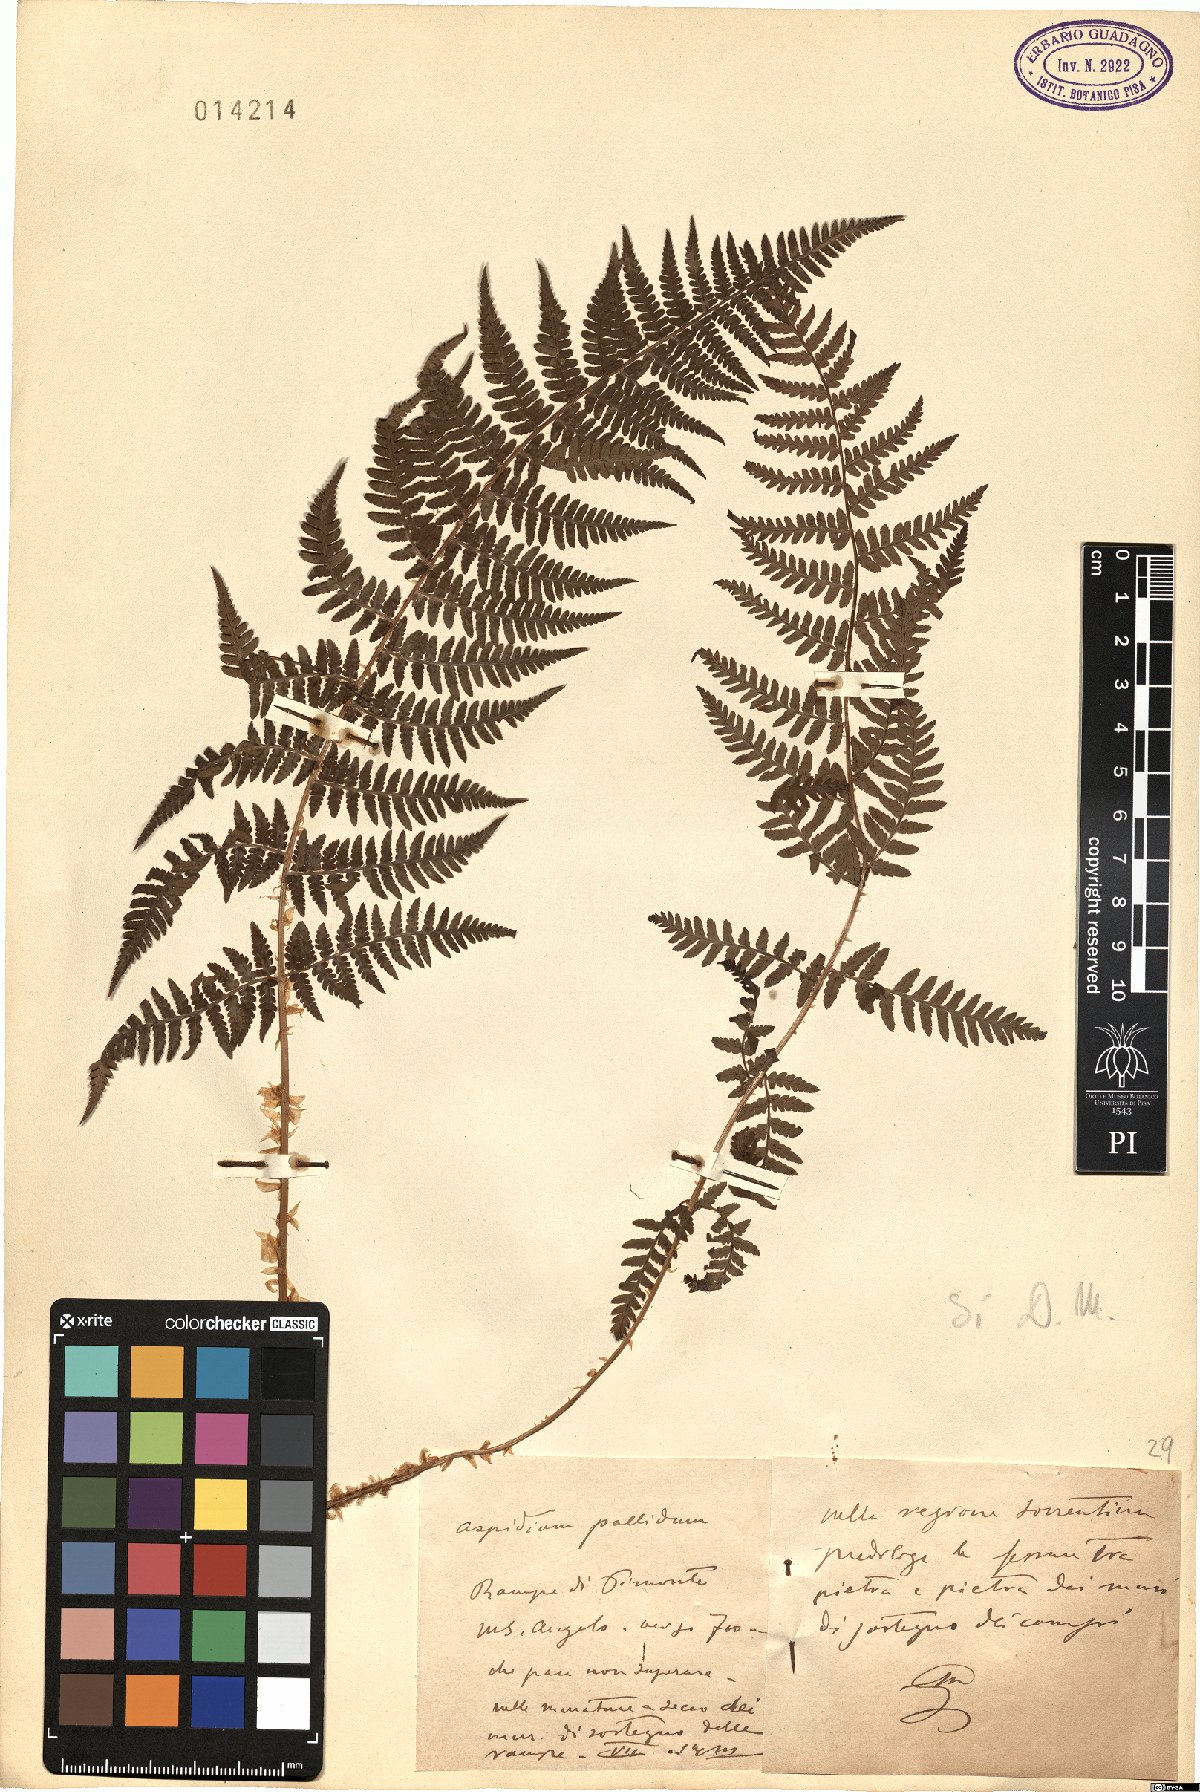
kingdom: Plantae
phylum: Tracheophyta
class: Polypodiopsida
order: Polypodiales
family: Dryopteridaceae
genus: Dryopteris
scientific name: Dryopteris pallida
